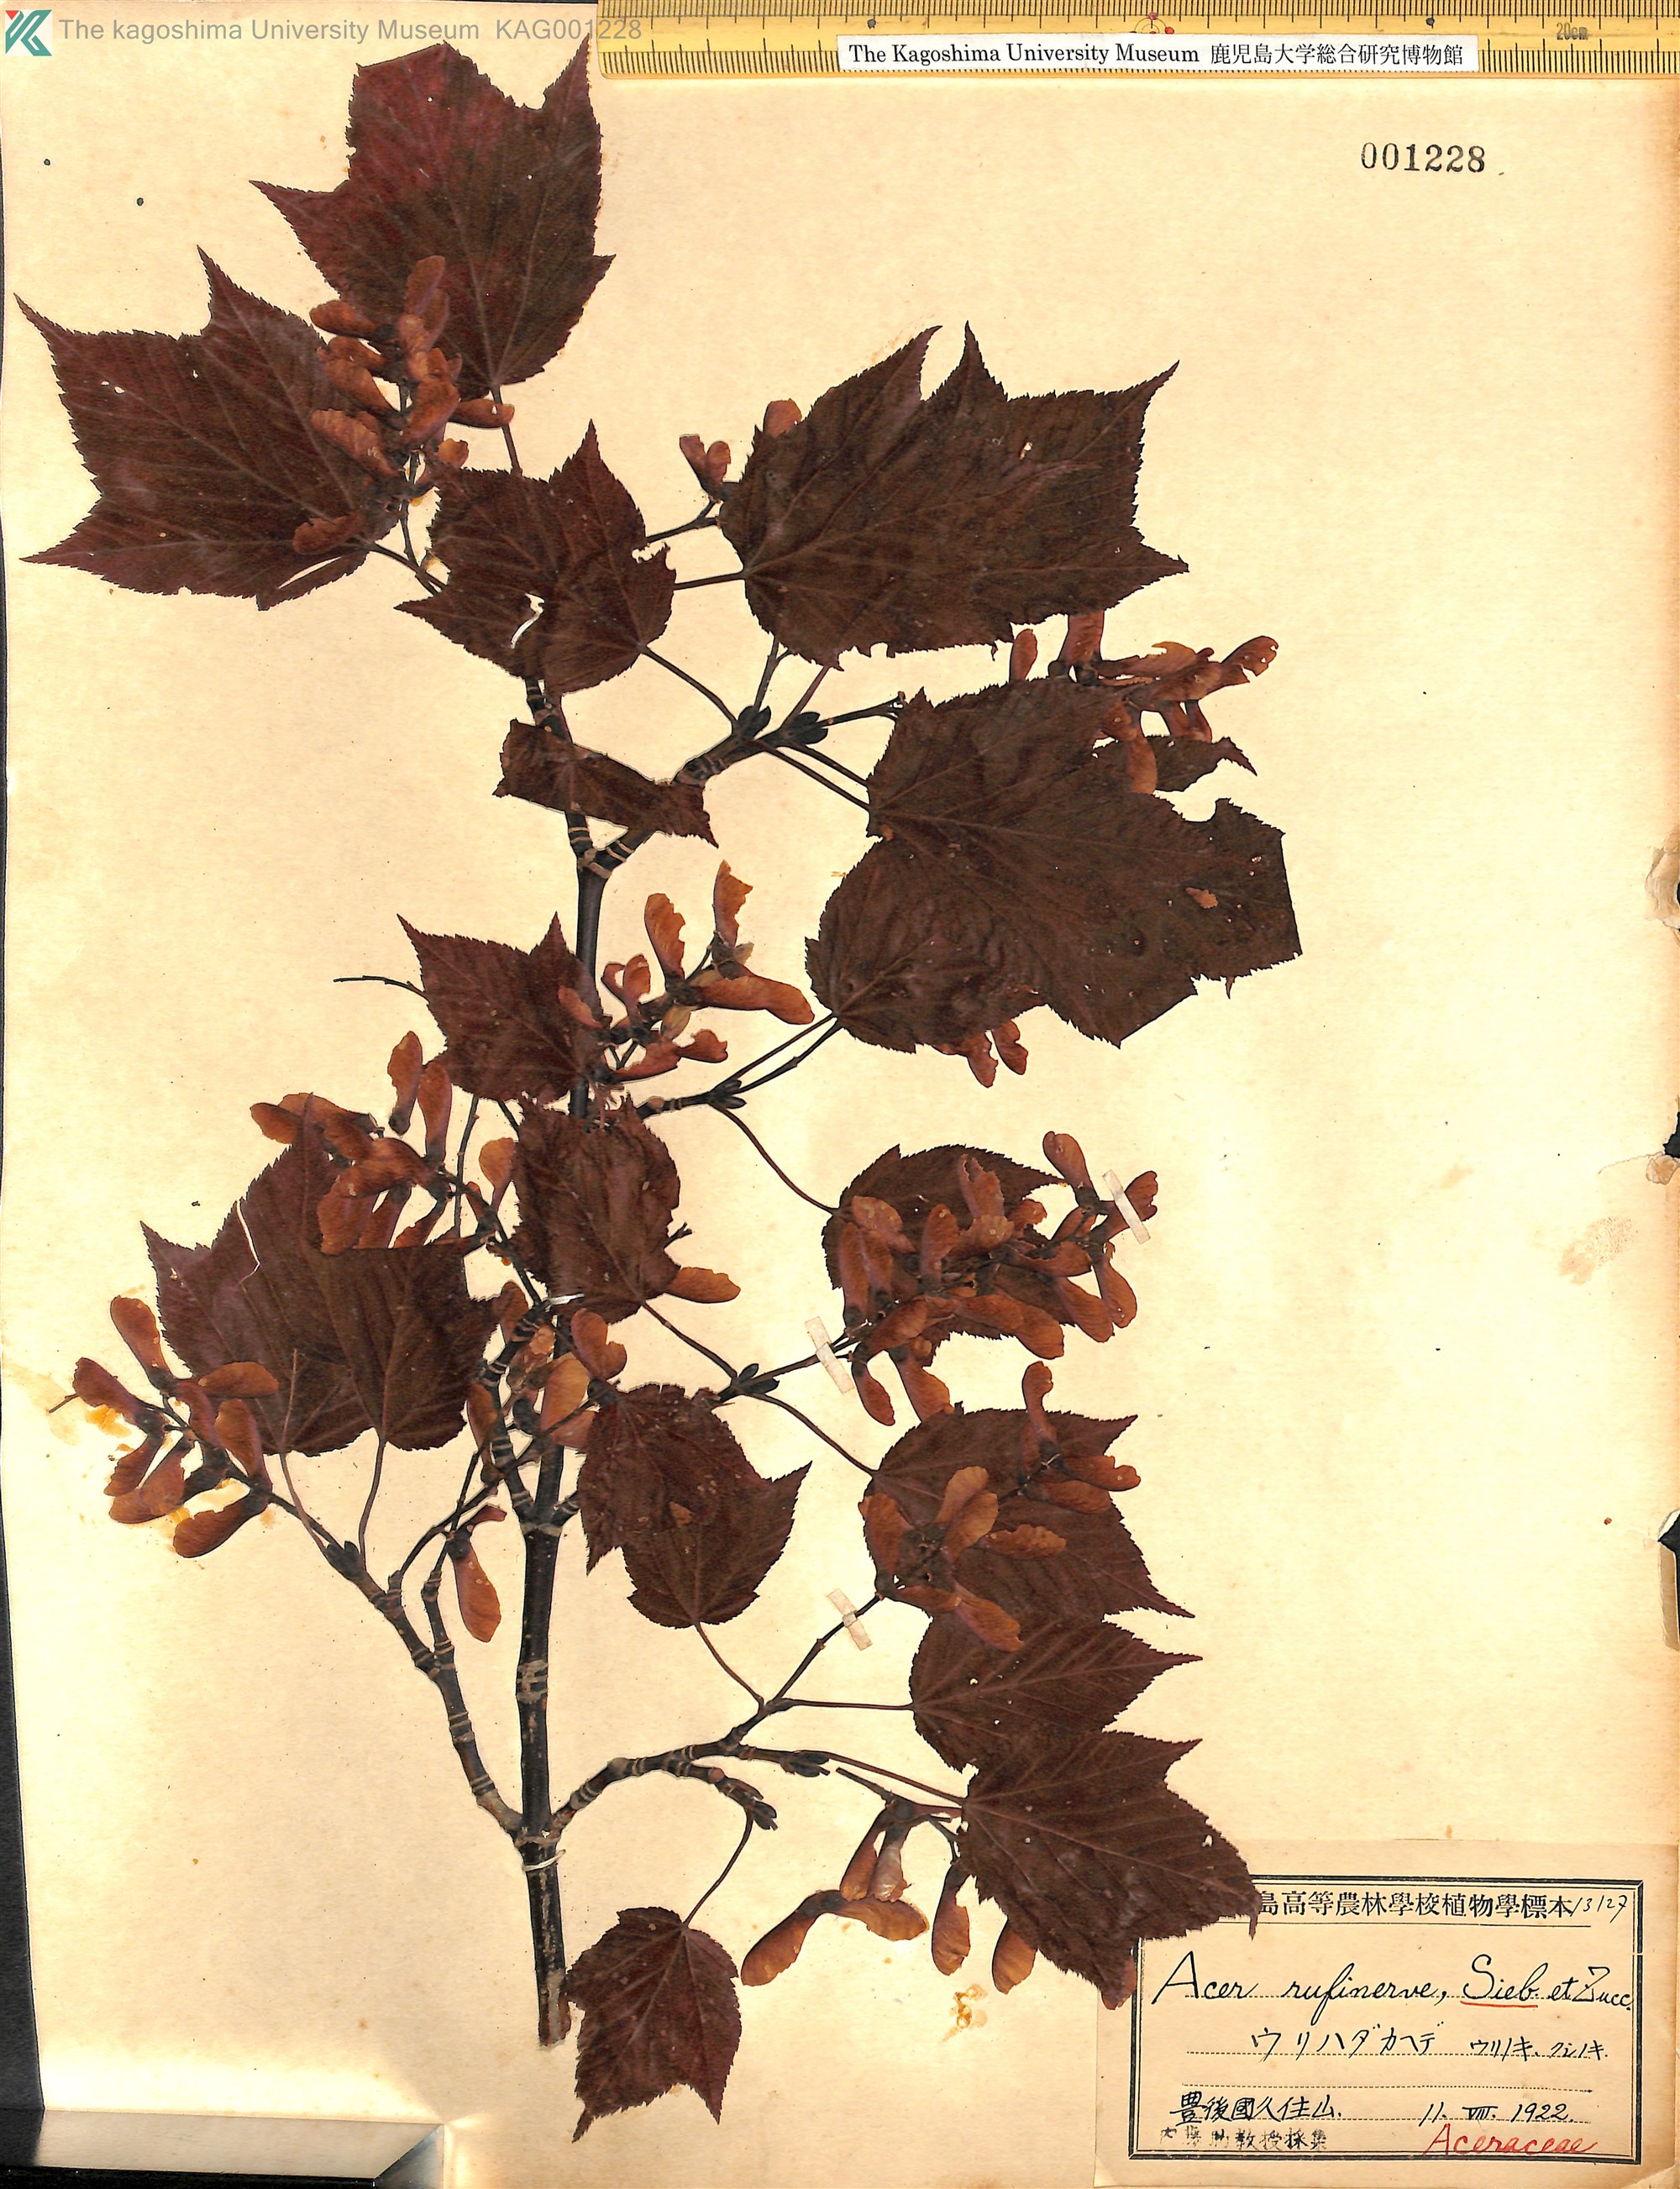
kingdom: Plantae
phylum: Tracheophyta
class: Magnoliopsida
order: Sapindales
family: Sapindaceae
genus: Acer
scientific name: Acer rufinerve
